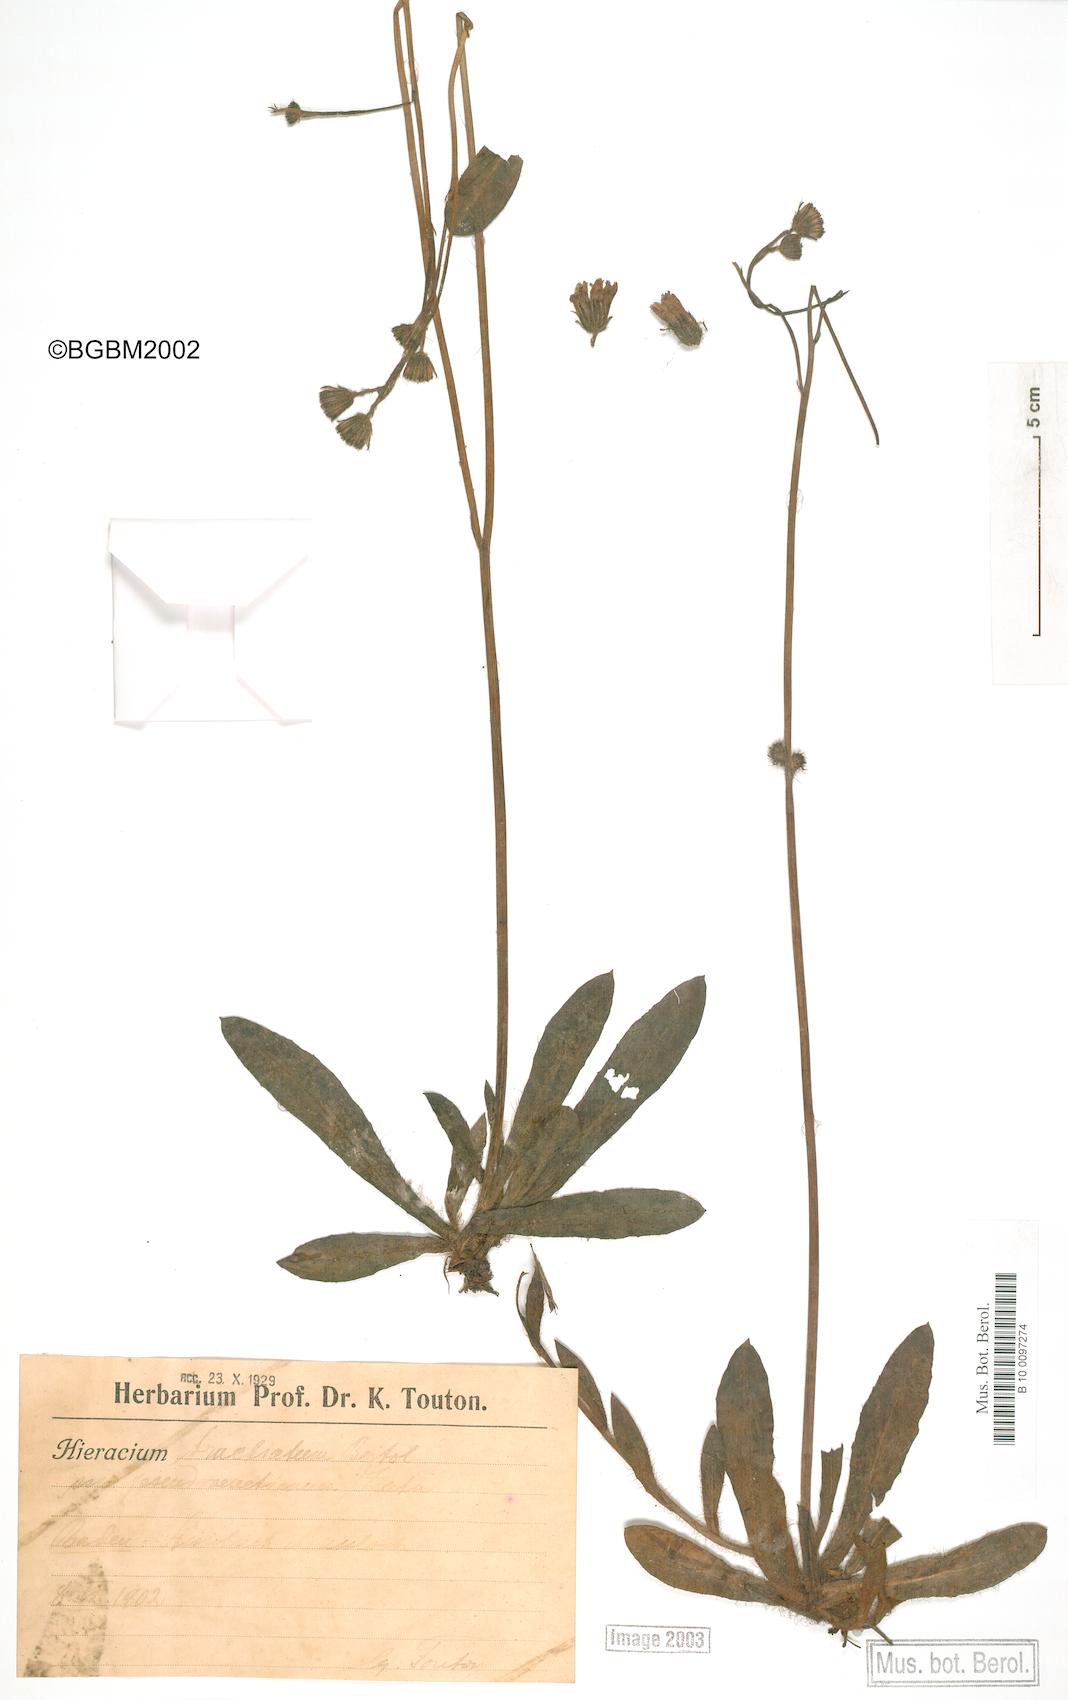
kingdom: Plantae
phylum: Tracheophyta
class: Magnoliopsida
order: Asterales
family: Asteraceae
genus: Pilosella
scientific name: Pilosella acutifolia
